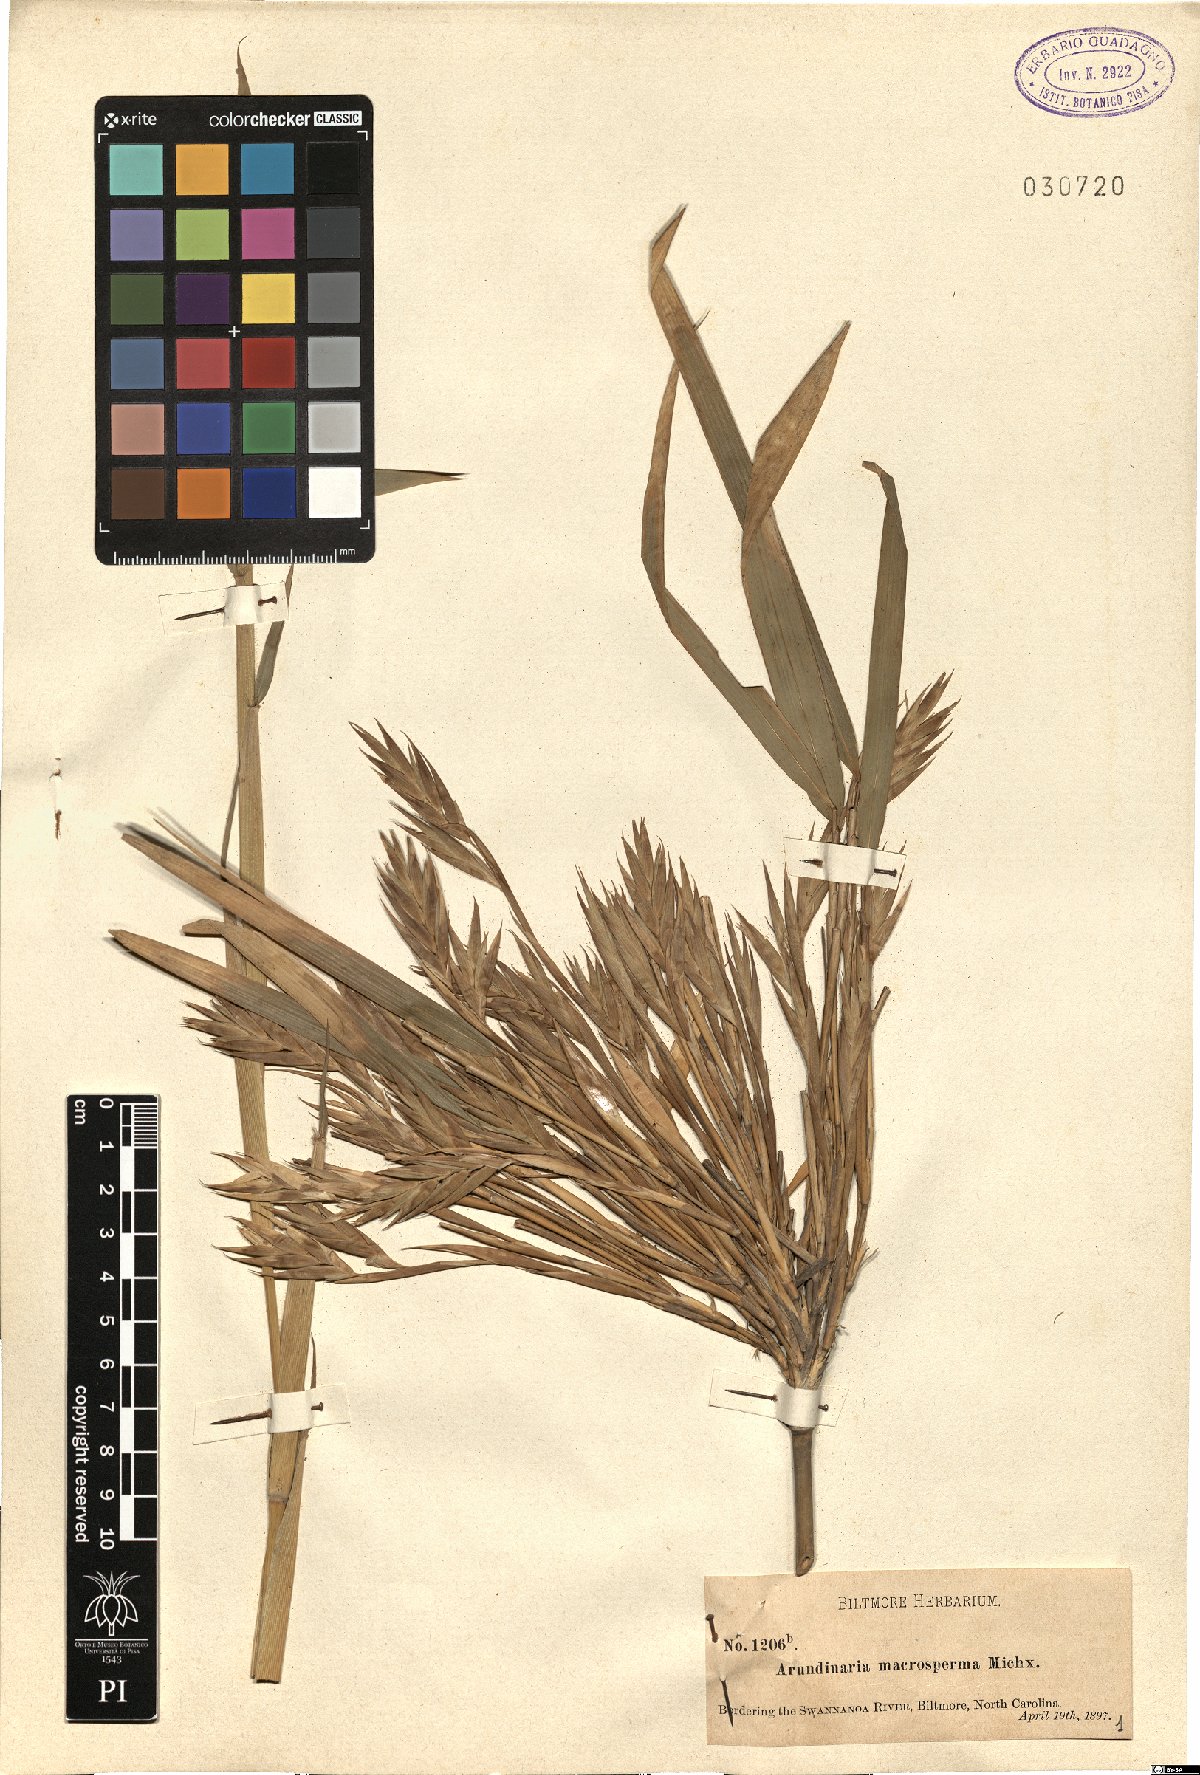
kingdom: Plantae
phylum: Tracheophyta
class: Liliopsida
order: Poales
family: Poaceae
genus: Arundinaria
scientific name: Arundinaria gigantea
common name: Giant cane
